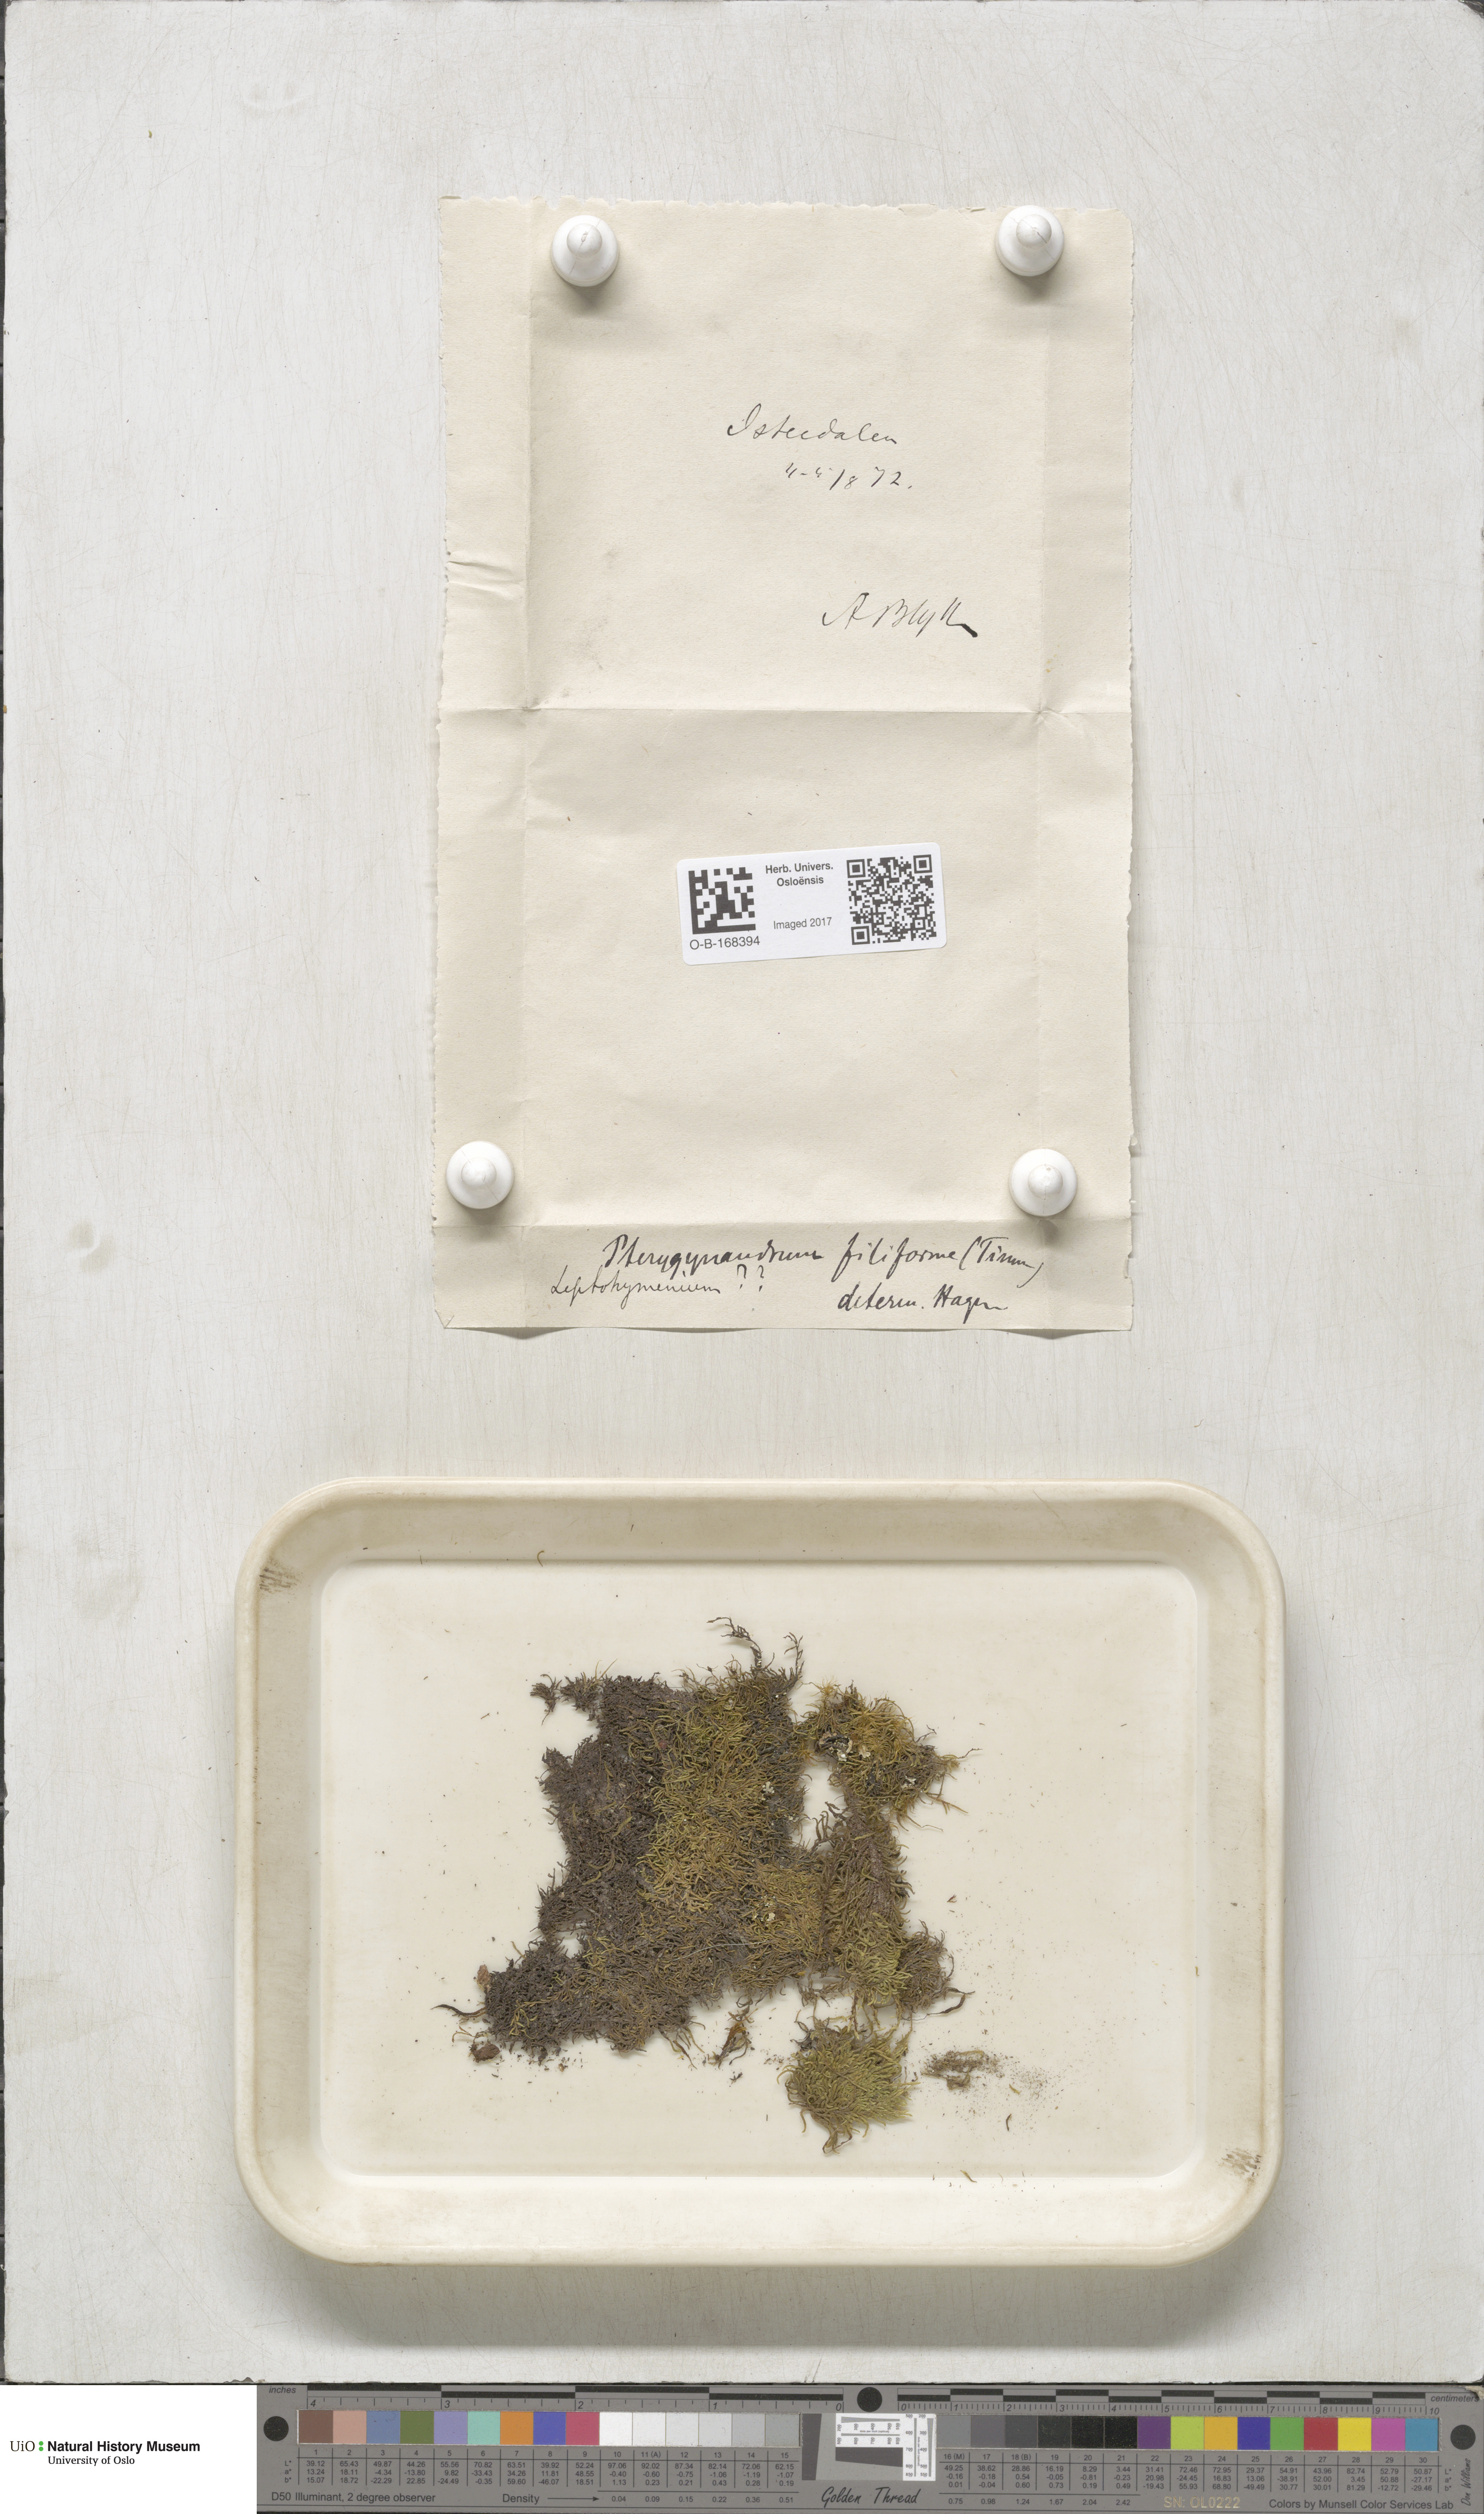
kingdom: Plantae
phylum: Bryophyta
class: Bryopsida
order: Hypnales
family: Pterigynandraceae
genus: Pterigynandrum
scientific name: Pterigynandrum filiforme
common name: Capillary wing moss
